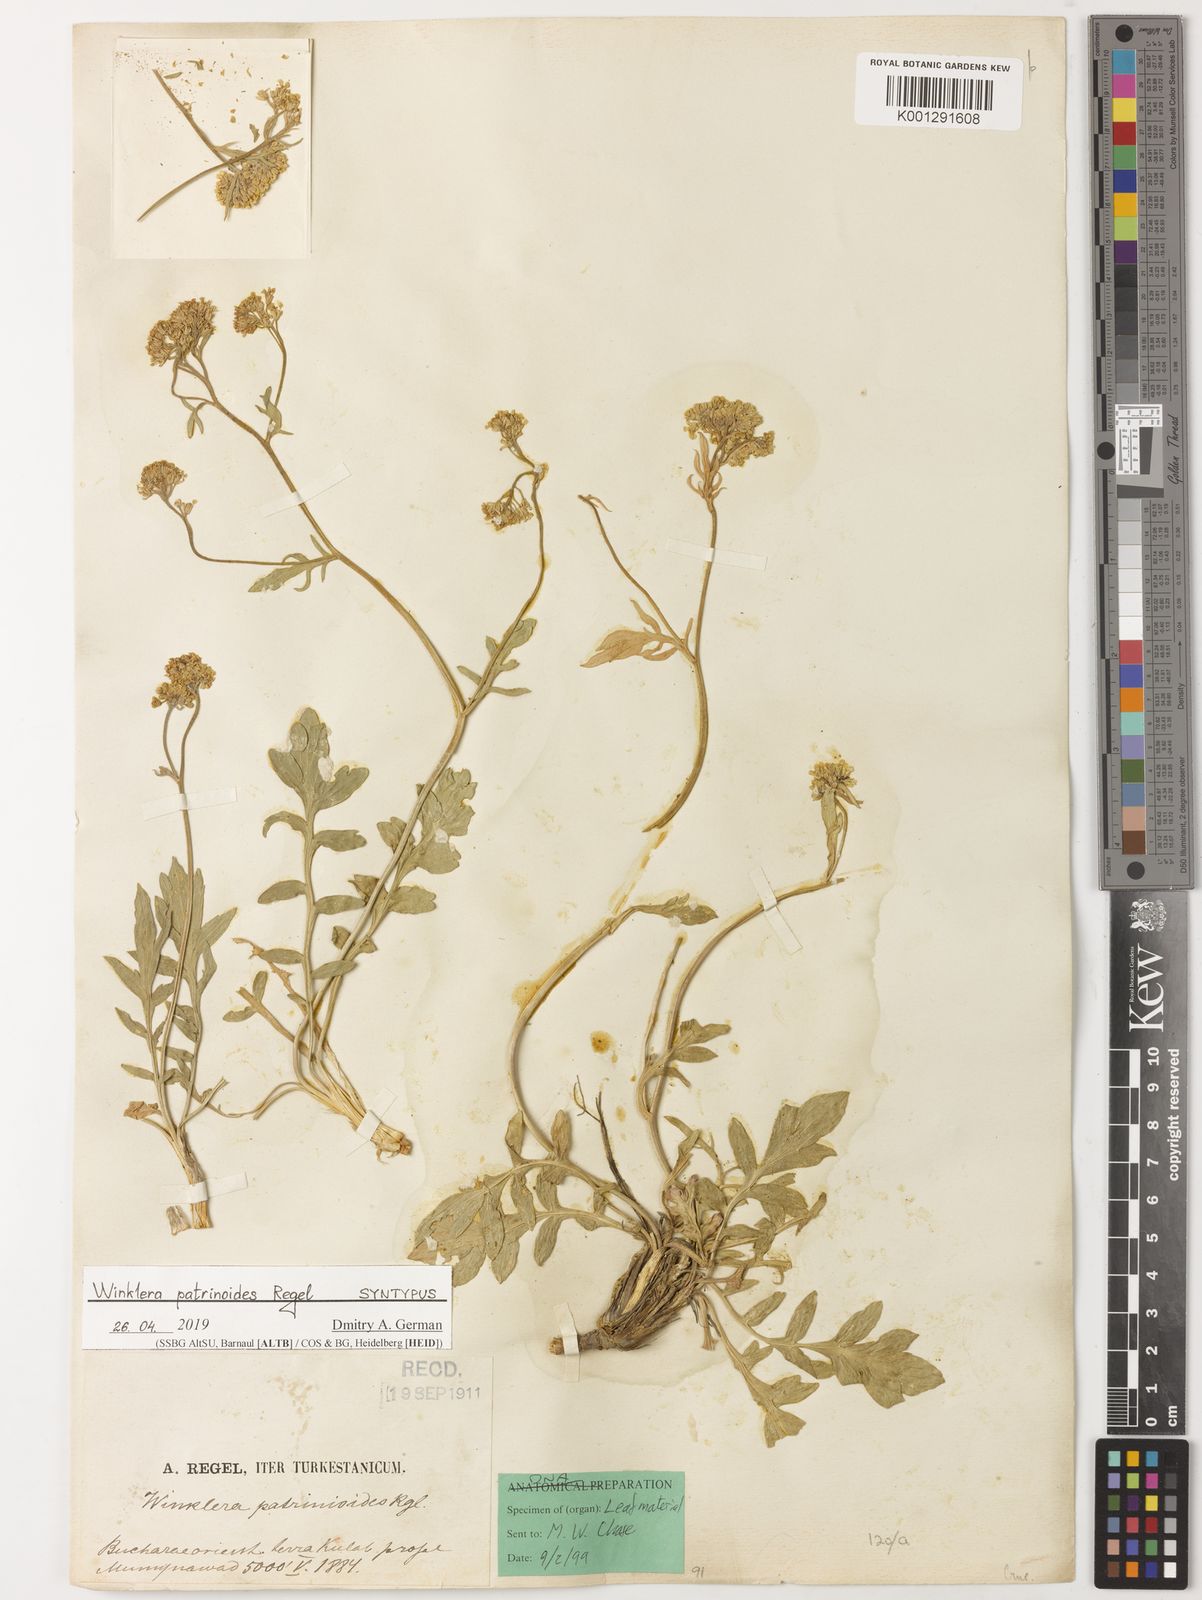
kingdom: Plantae
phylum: Tracheophyta
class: Magnoliopsida
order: Brassicales
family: Brassicaceae
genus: Lepidium
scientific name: Lepidium
